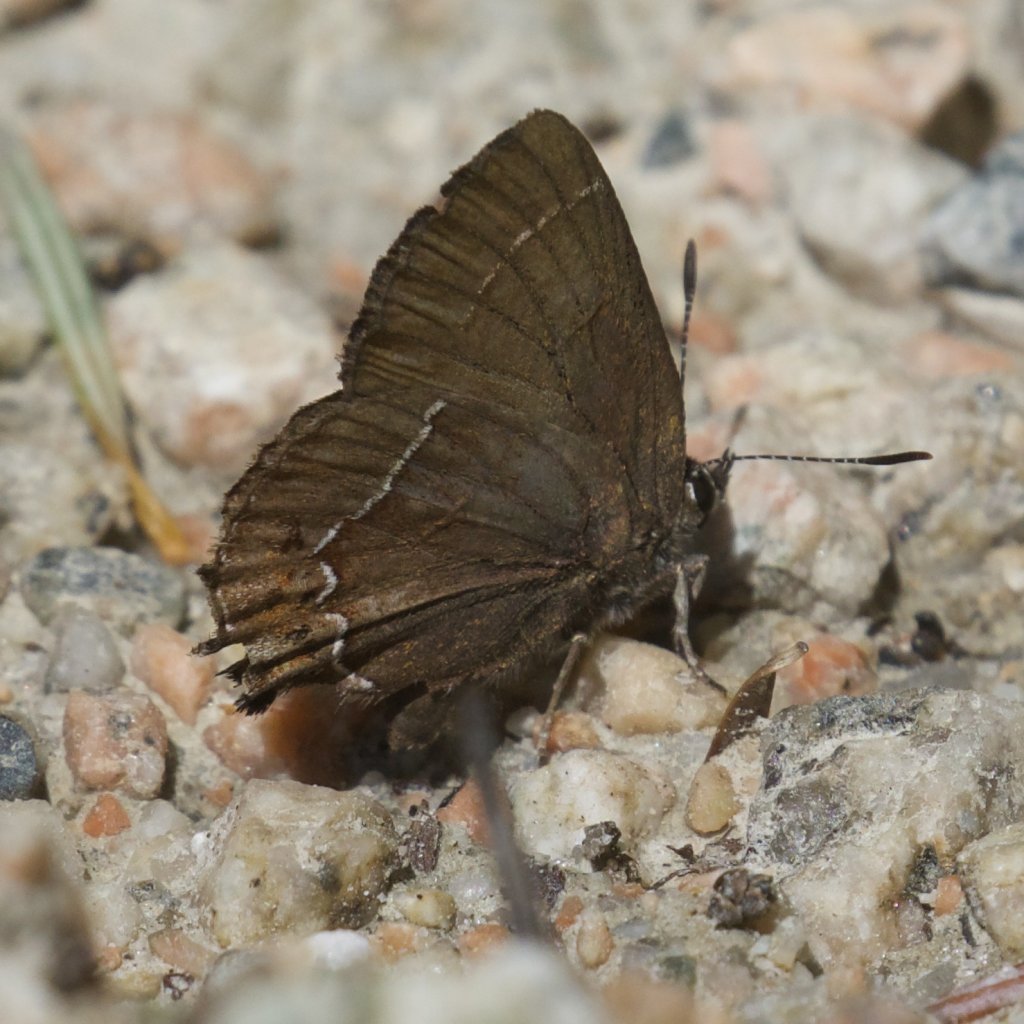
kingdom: Animalia
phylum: Arthropoda
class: Insecta
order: Lepidoptera
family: Lycaenidae
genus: Thecla
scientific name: Thecla johnsoni
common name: Johnson's Hairstreak
